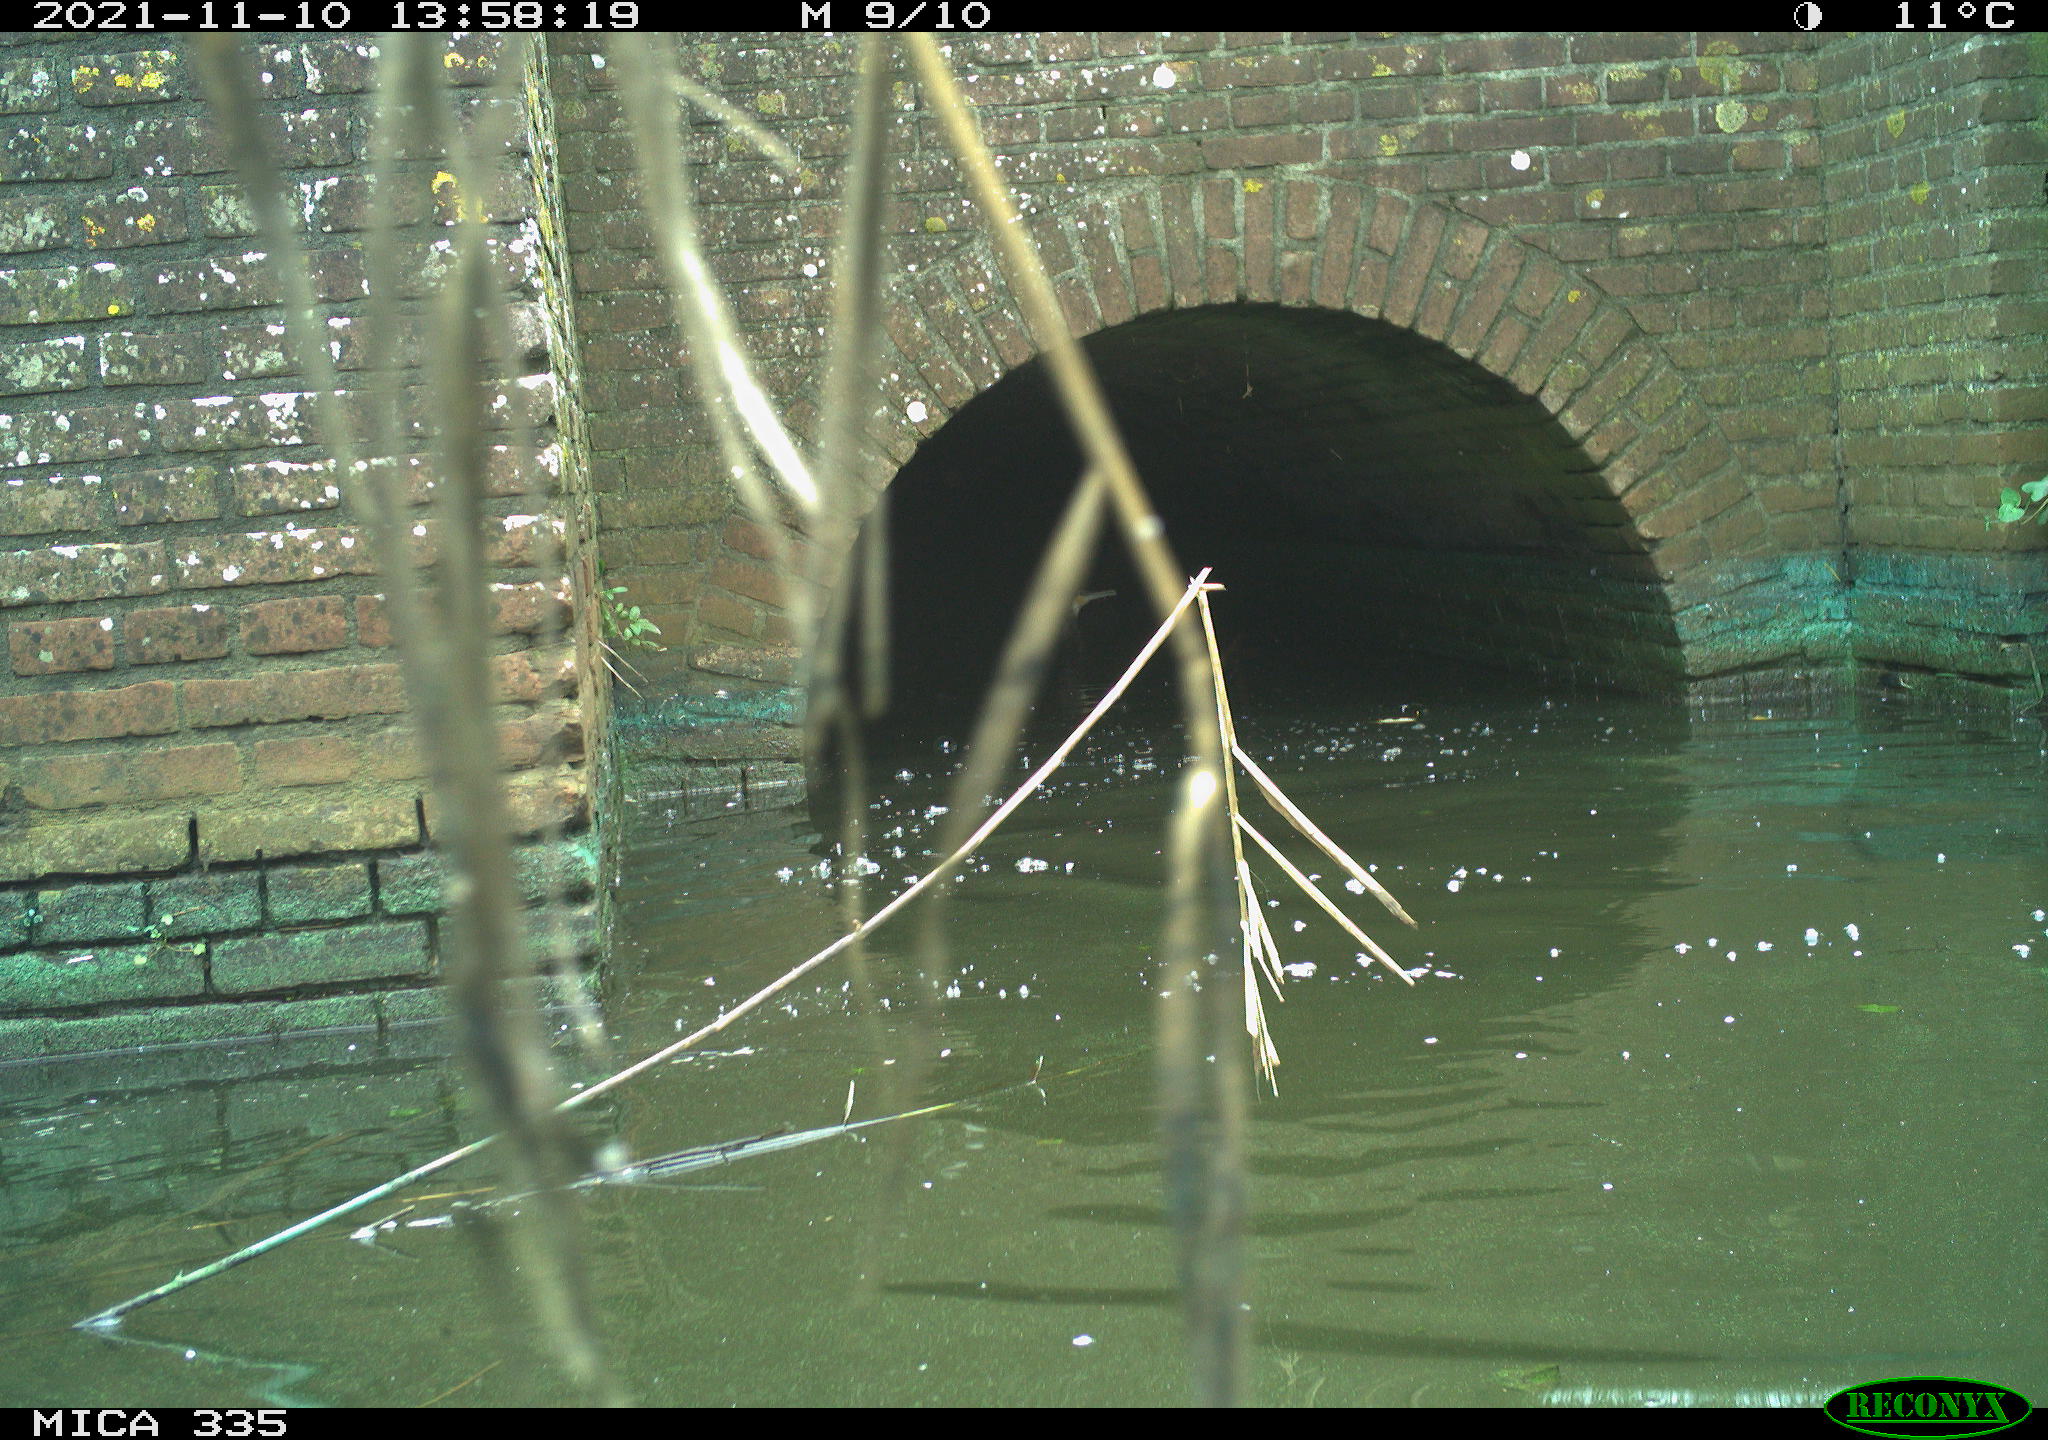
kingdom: Animalia
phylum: Chordata
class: Aves
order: Suliformes
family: Phalacrocoracidae
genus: Phalacrocorax
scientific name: Phalacrocorax carbo
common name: Great cormorant
